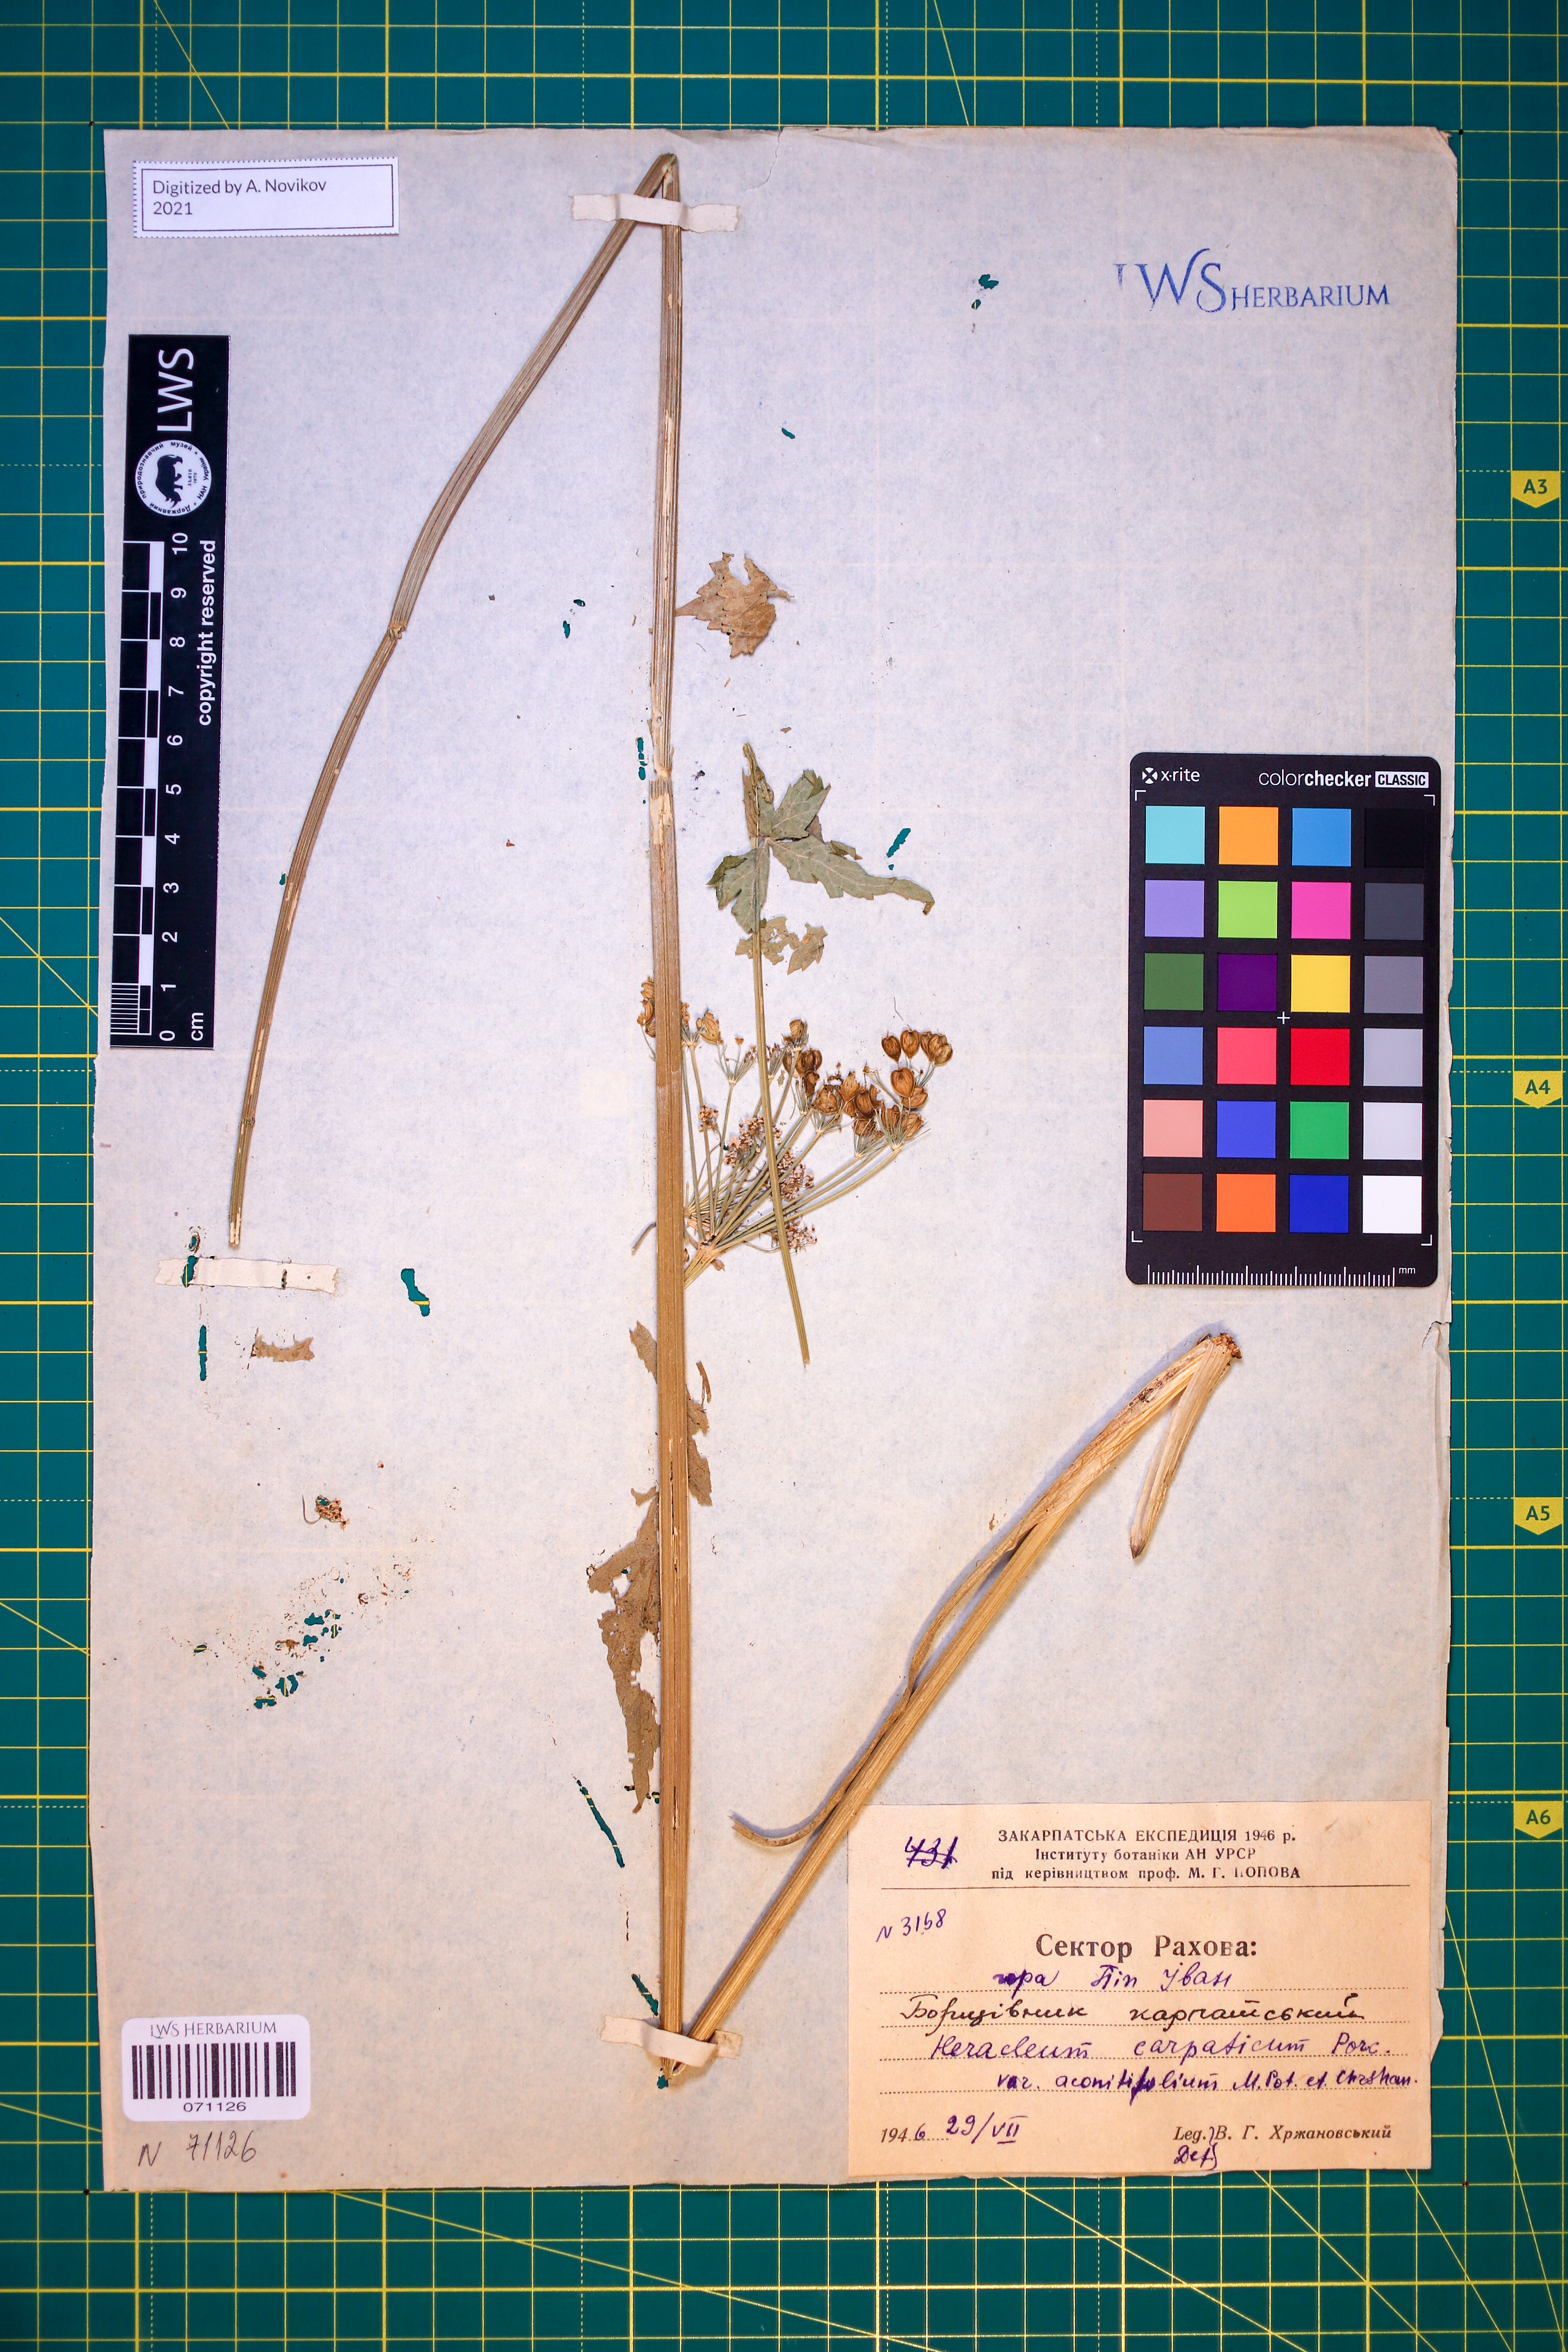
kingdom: Plantae
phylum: Tracheophyta
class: Magnoliopsida
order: Apiales
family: Apiaceae
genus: Heracleum
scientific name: Heracleum carpaticum
